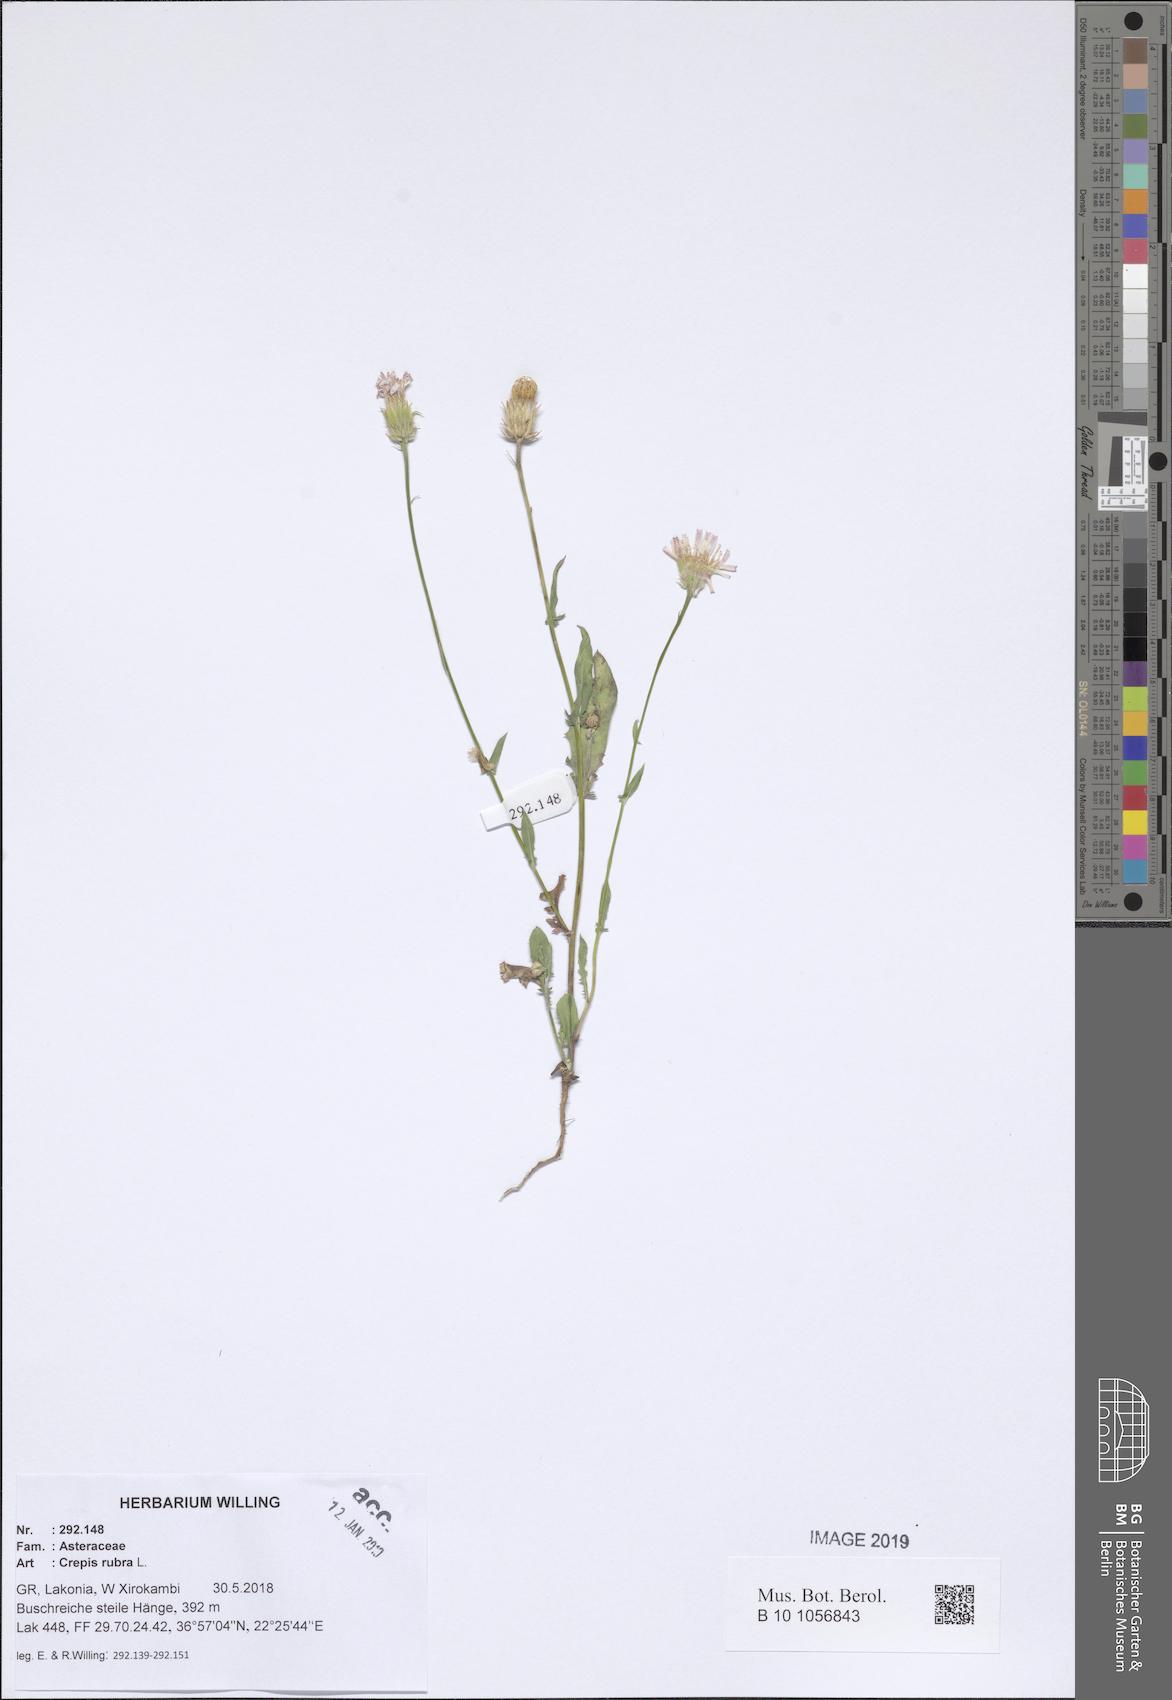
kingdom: Plantae
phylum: Tracheophyta
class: Magnoliopsida
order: Asterales
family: Asteraceae
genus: Crepis
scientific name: Crepis rubra
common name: Pink hawk's-beard
